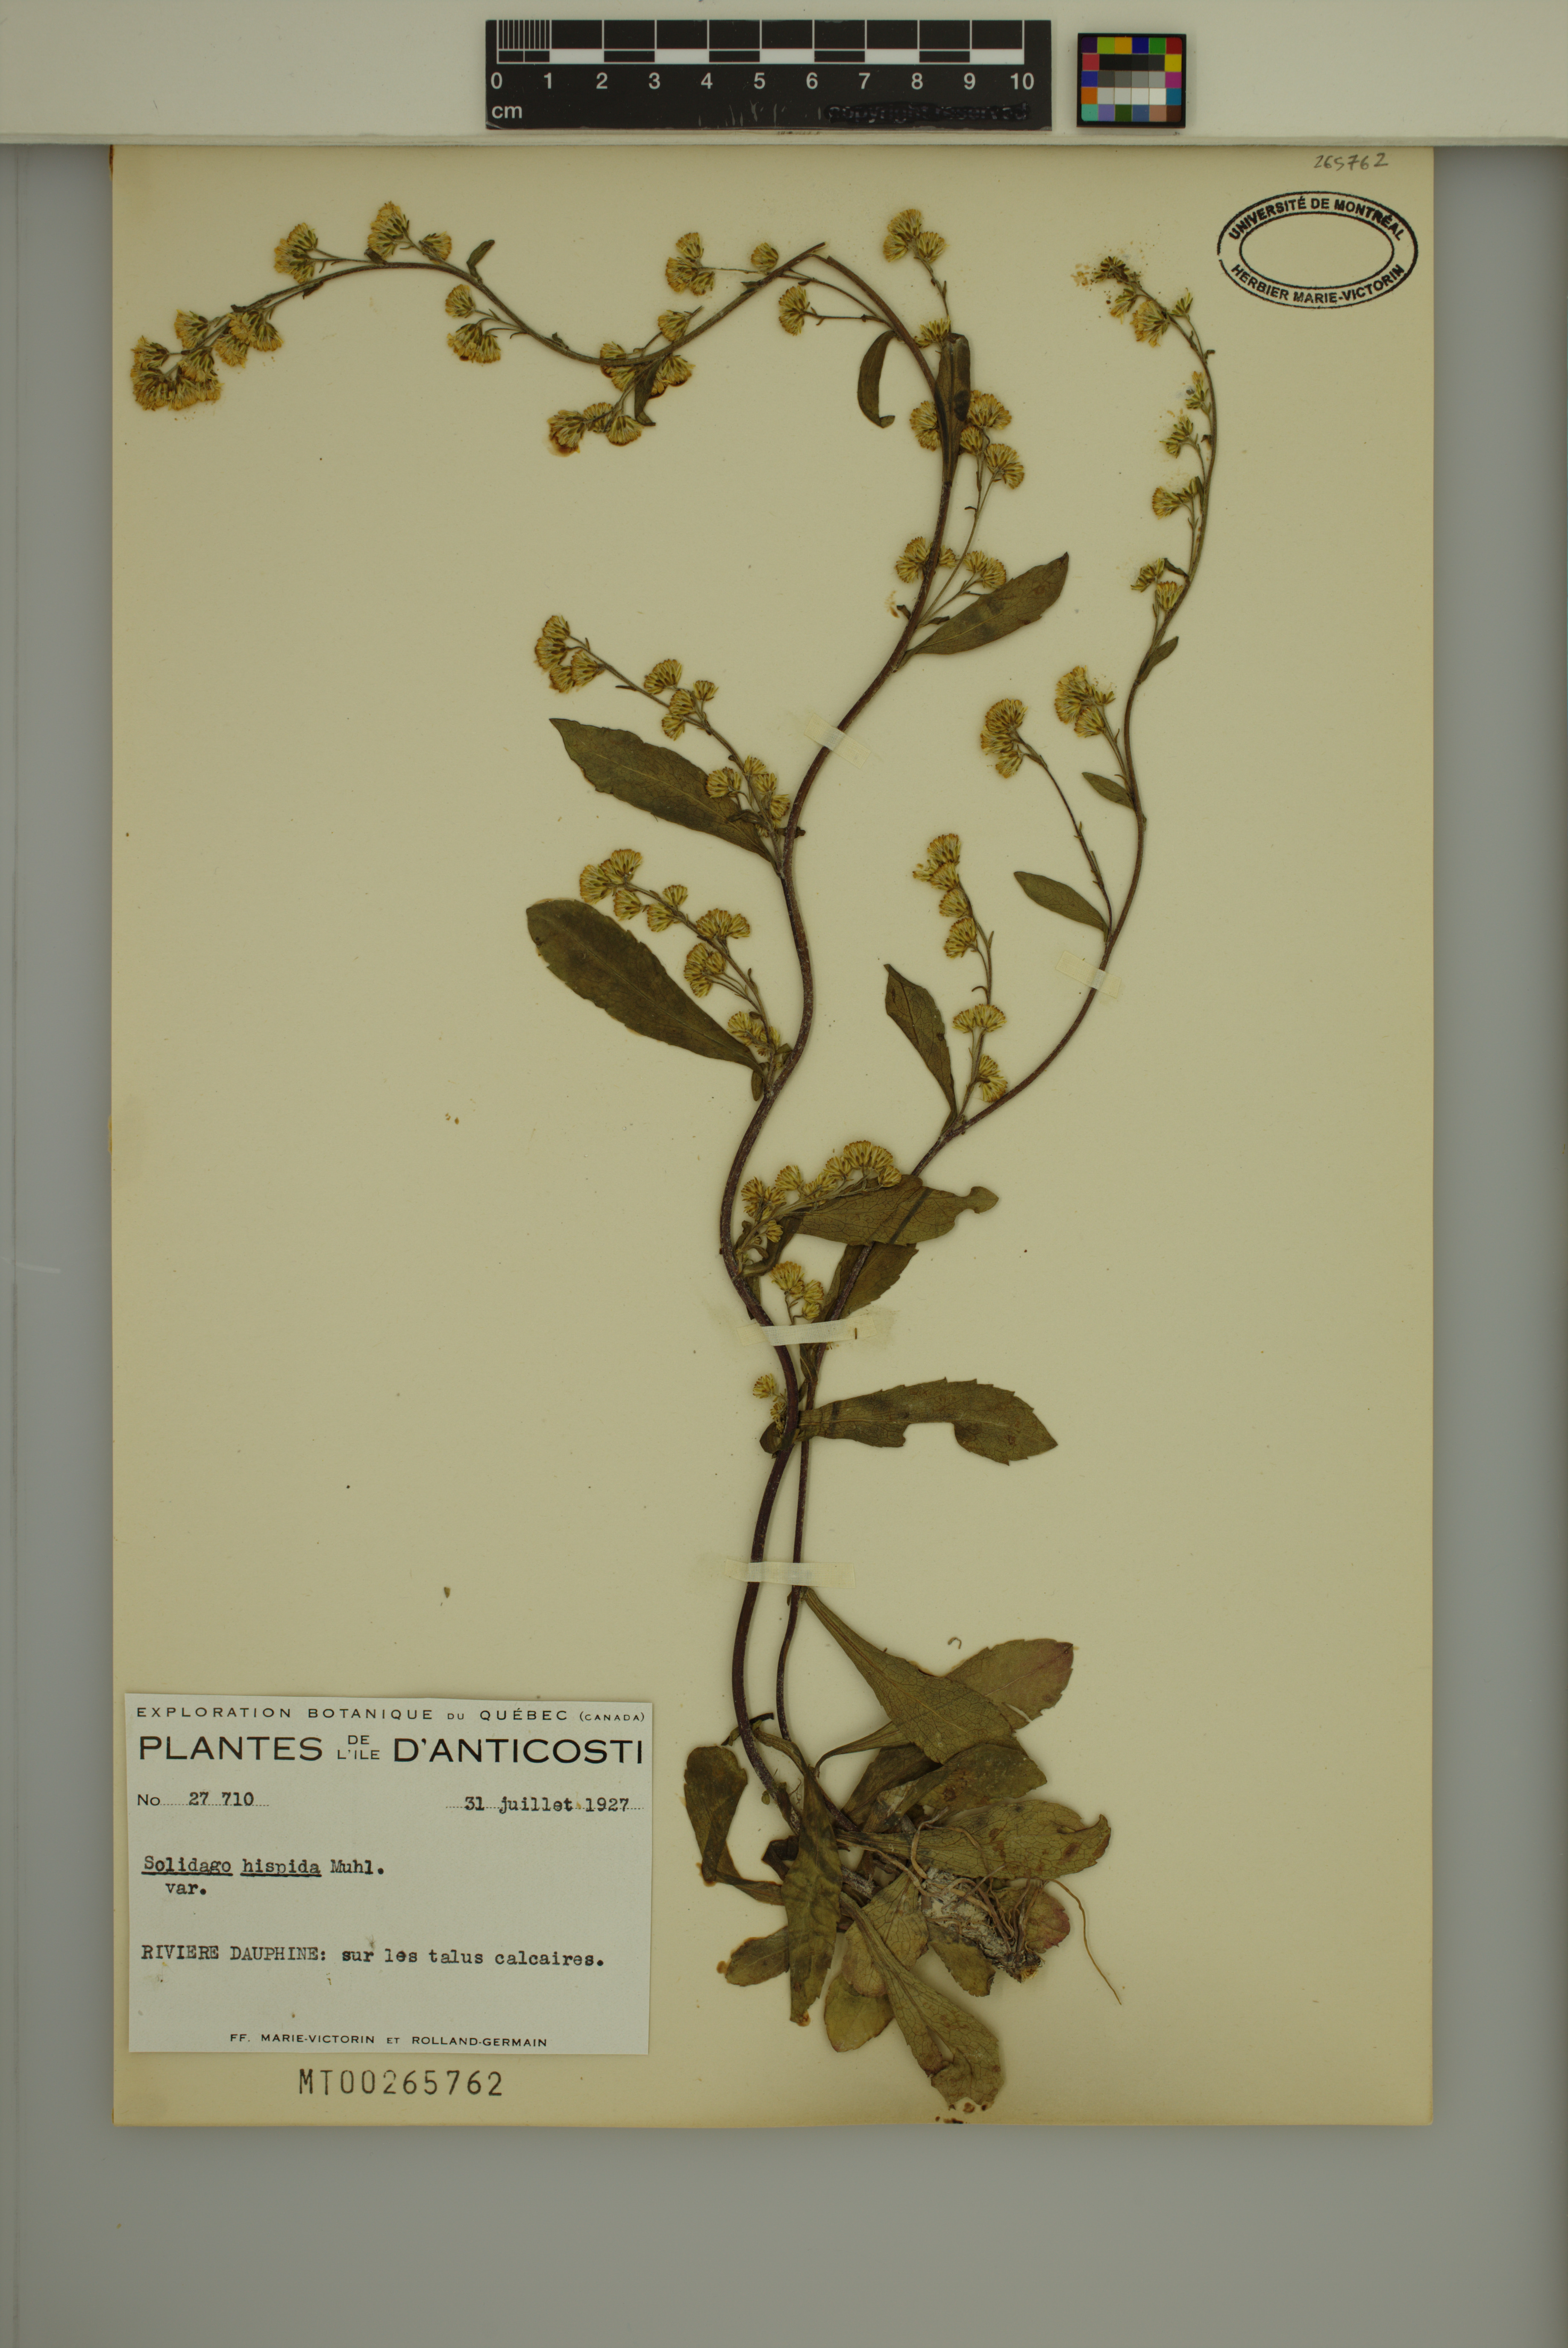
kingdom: Plantae
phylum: Tracheophyta
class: Magnoliopsida
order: Asterales
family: Asteraceae
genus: Solidago
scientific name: Solidago hispida
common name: Hairy goldenrod
